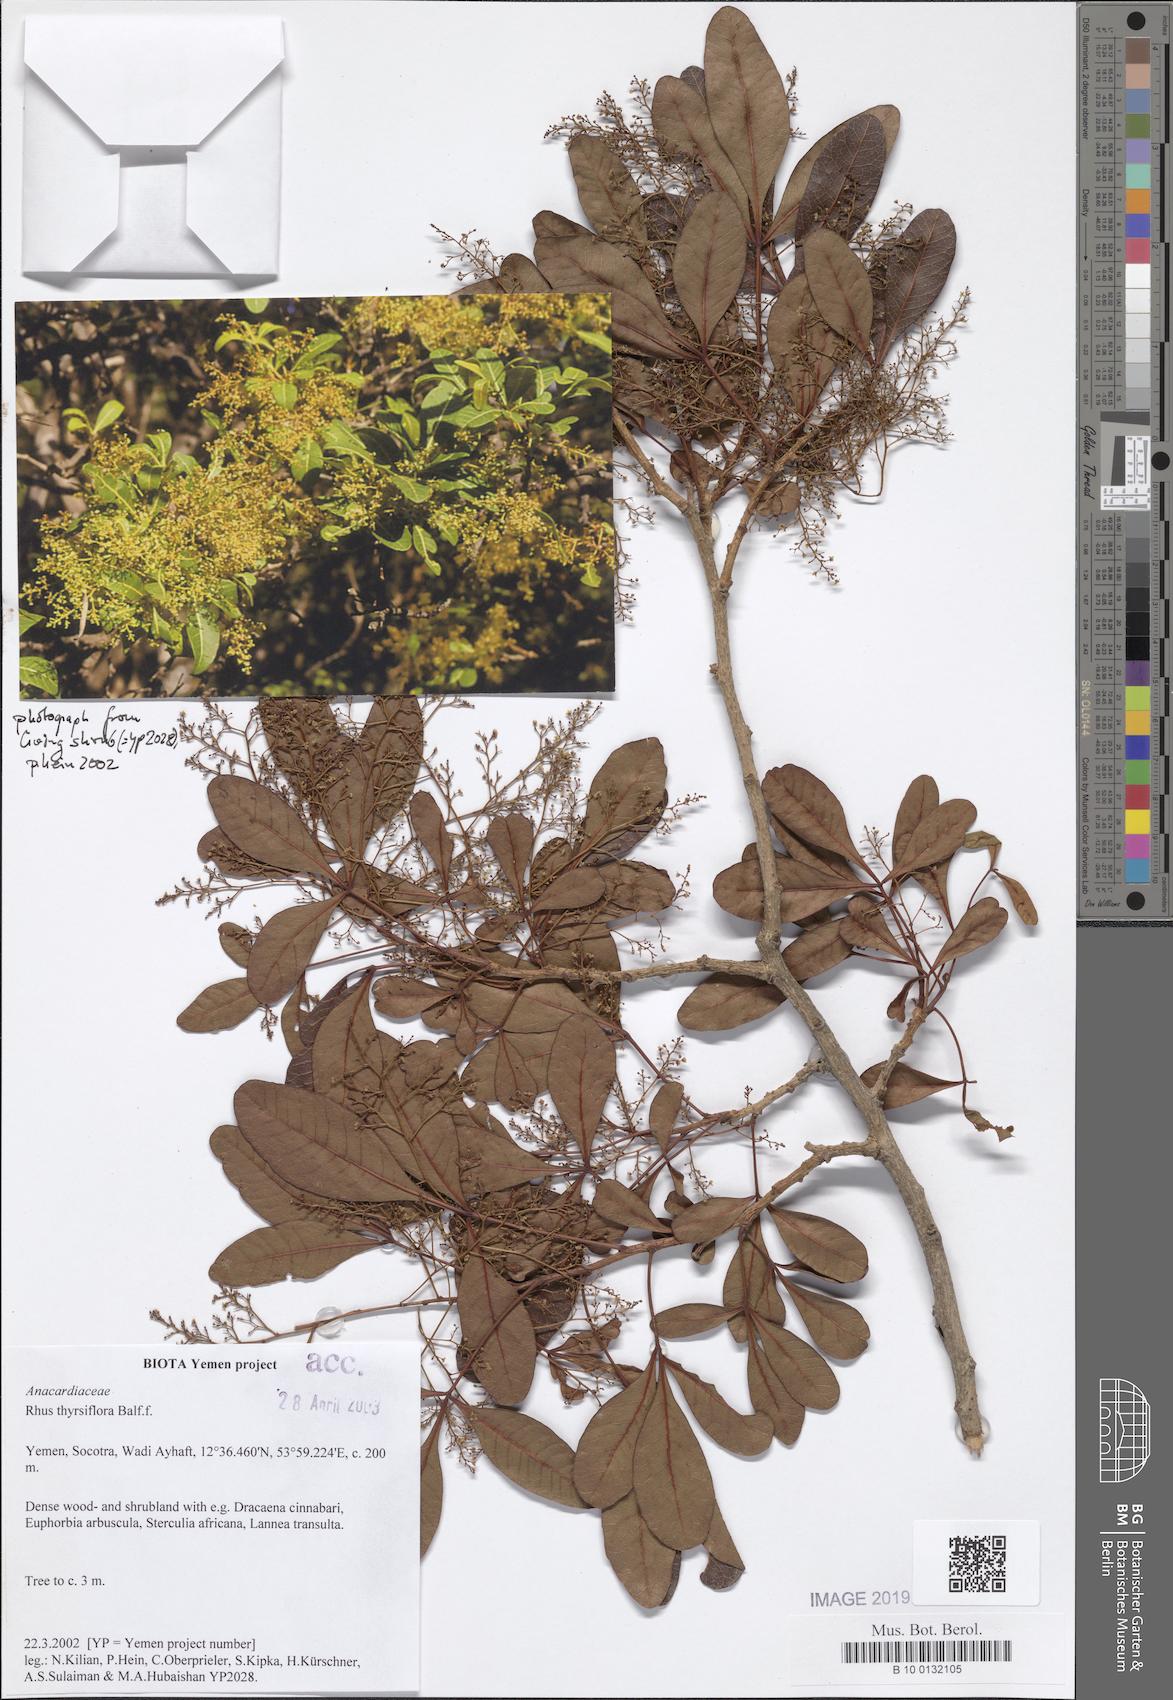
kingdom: Plantae
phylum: Tracheophyta
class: Magnoliopsida
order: Sapindales
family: Anacardiaceae
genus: Searsia
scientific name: Searsia thyrsiflora
